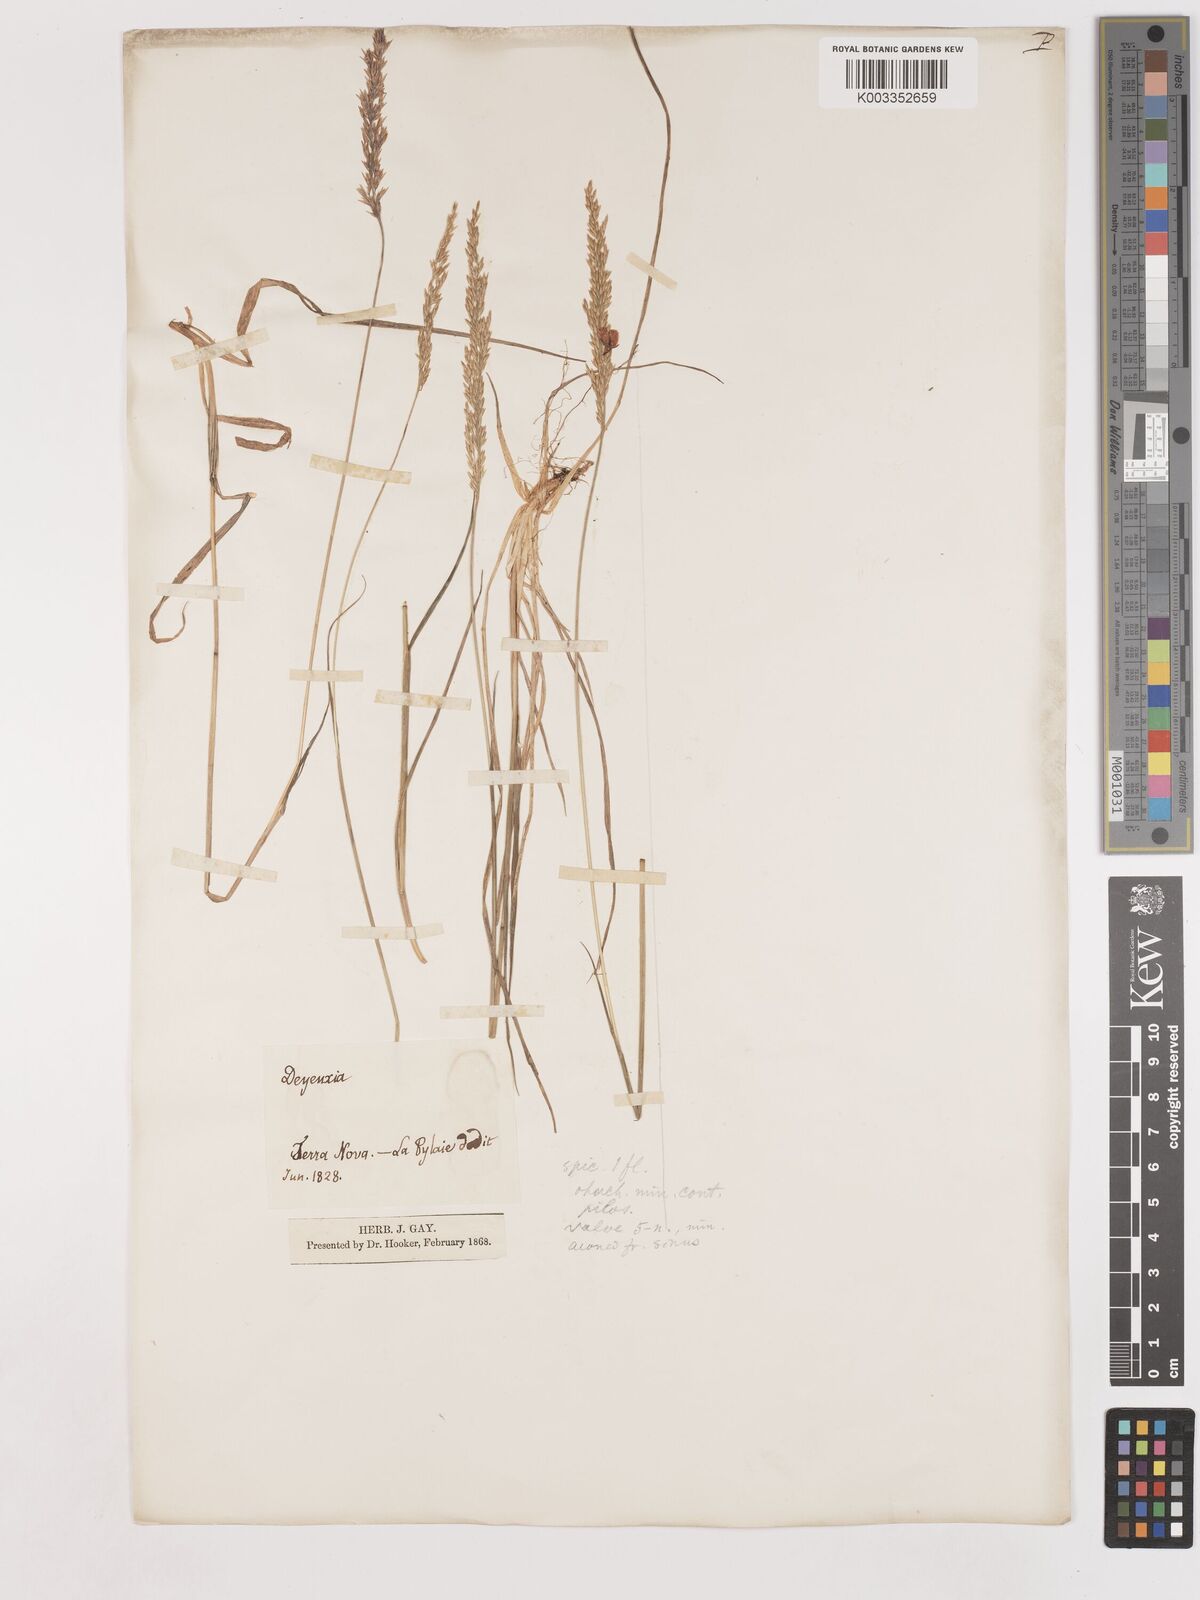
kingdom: Plantae
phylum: Tracheophyta
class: Liliopsida
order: Poales
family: Poaceae
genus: Calamagrostis
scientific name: Calamagrostis canadensis
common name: Canada bluejoint
